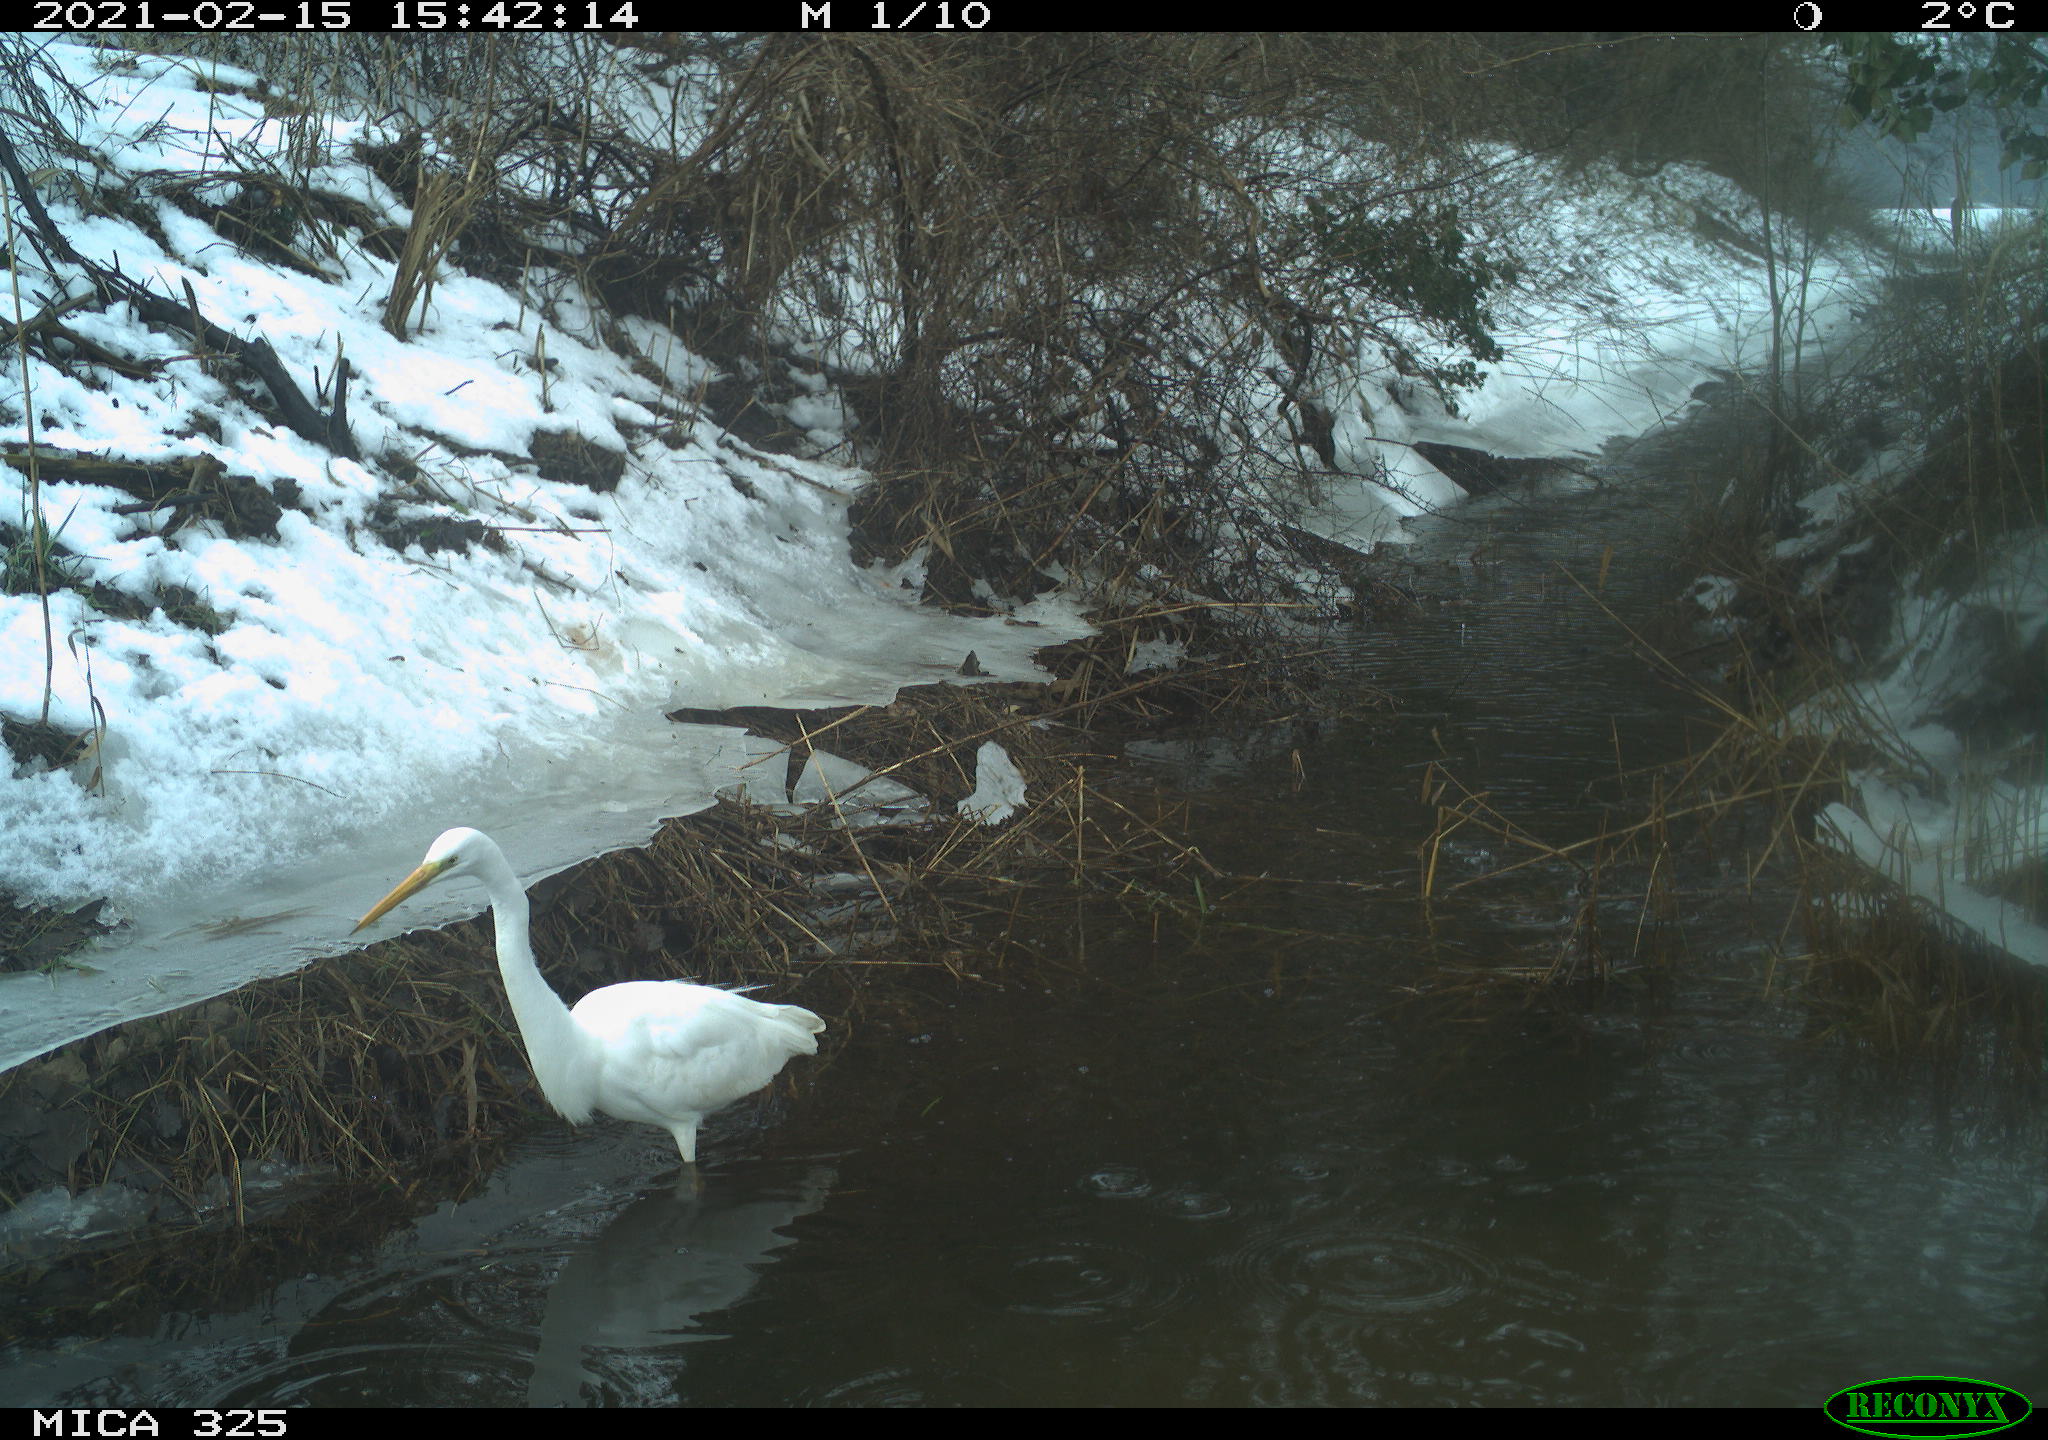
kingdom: Animalia
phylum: Chordata
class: Aves
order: Pelecaniformes
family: Ardeidae
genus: Ardea
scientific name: Ardea alba
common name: Great egret
